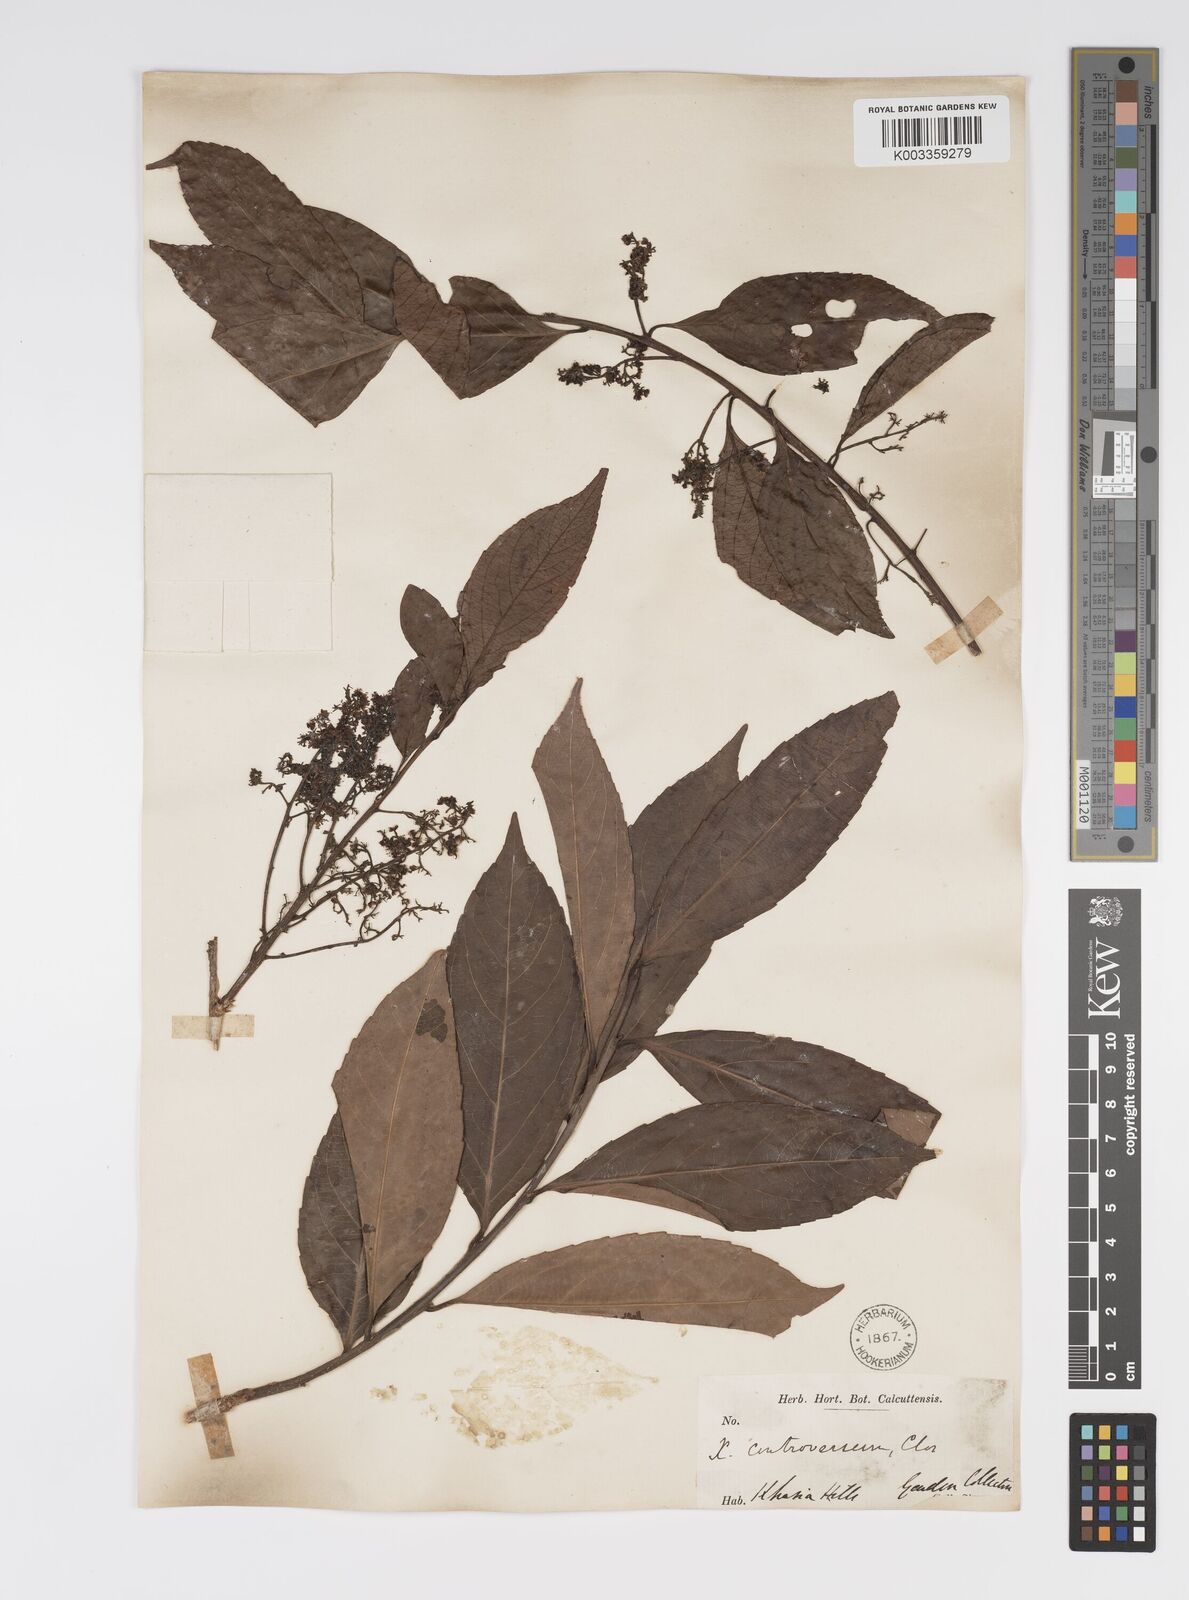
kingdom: Plantae
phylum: Tracheophyta
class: Magnoliopsida
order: Malpighiales
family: Salicaceae
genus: Xylosma
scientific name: Xylosma controversa
